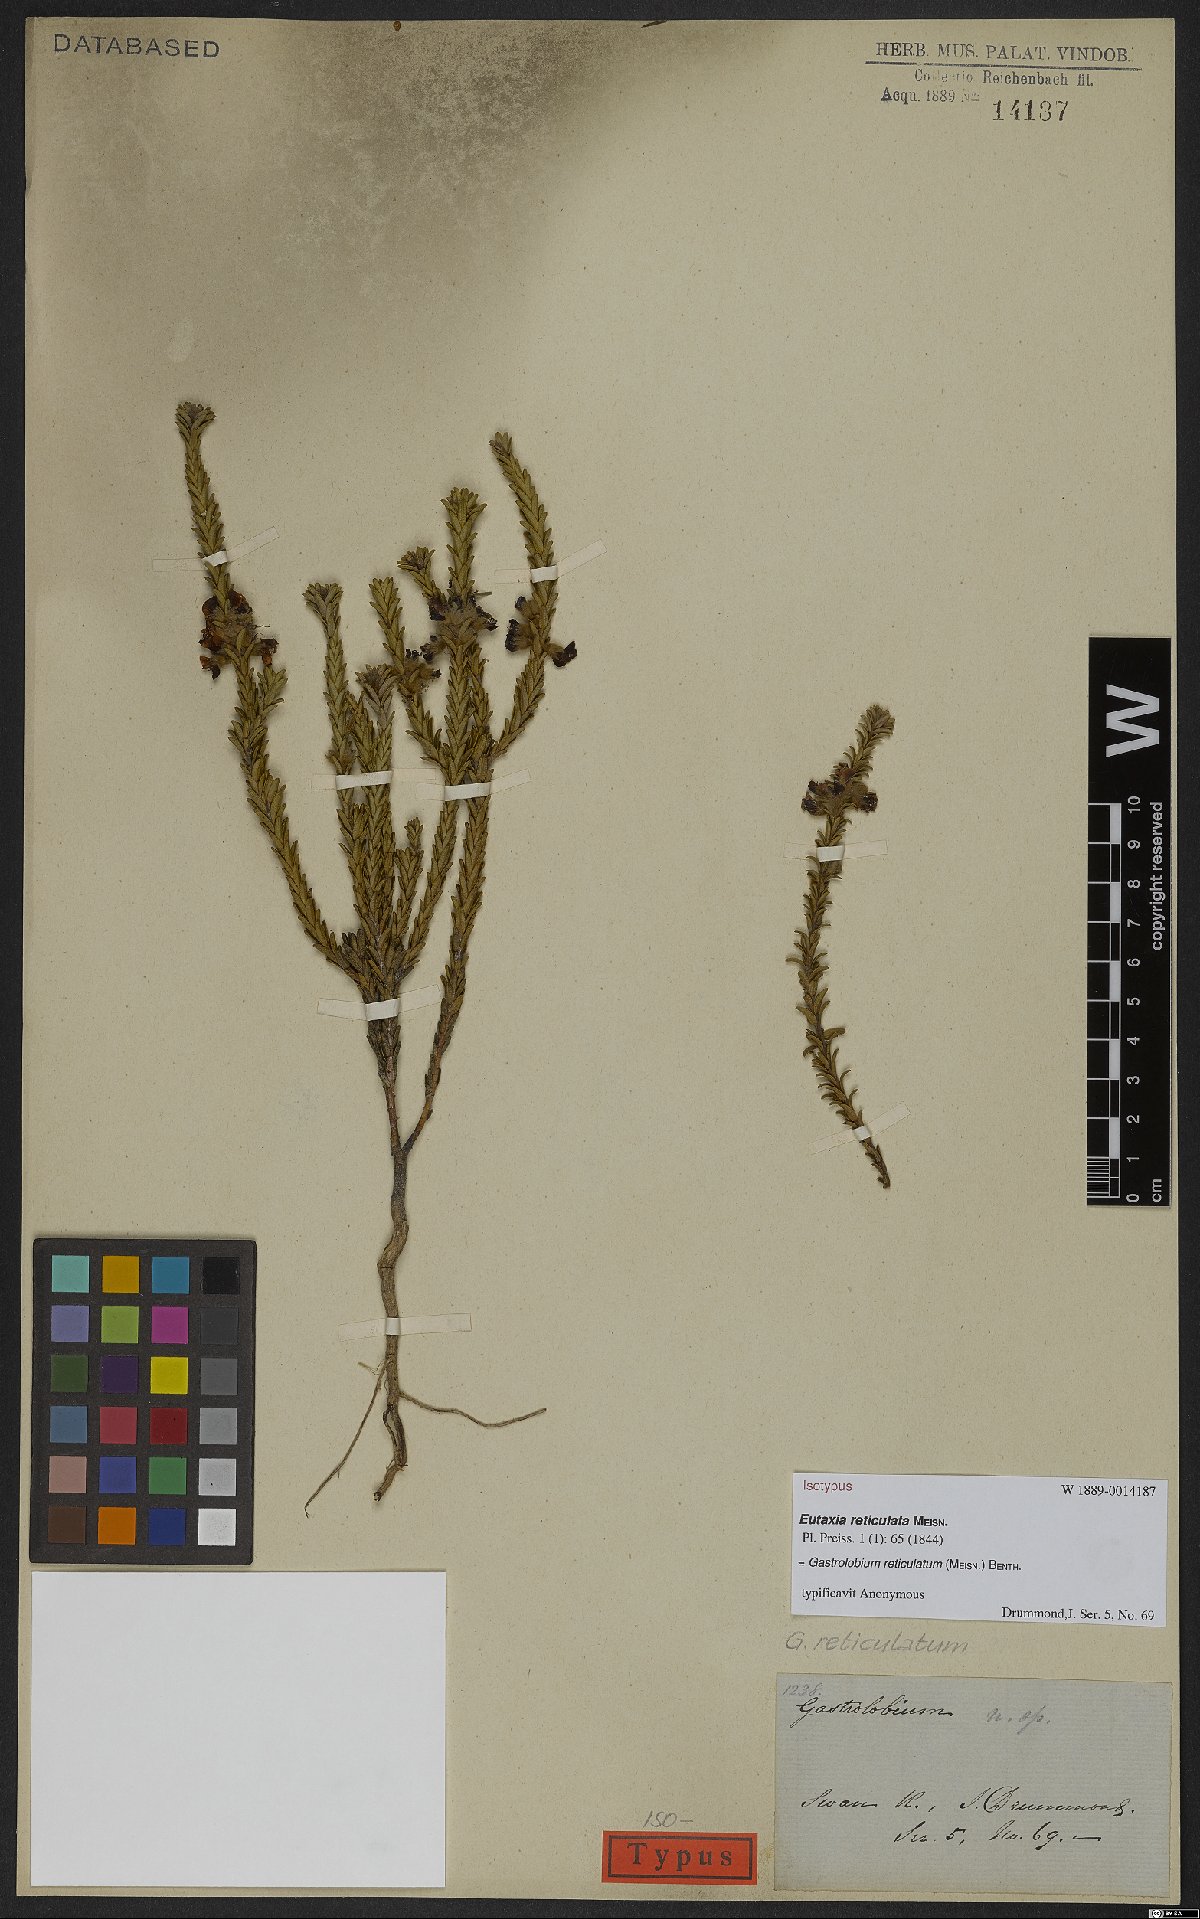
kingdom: Plantae
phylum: Tracheophyta
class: Magnoliopsida
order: Fabales
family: Fabaceae
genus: Gastrolobium
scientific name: Gastrolobium reticulatum
